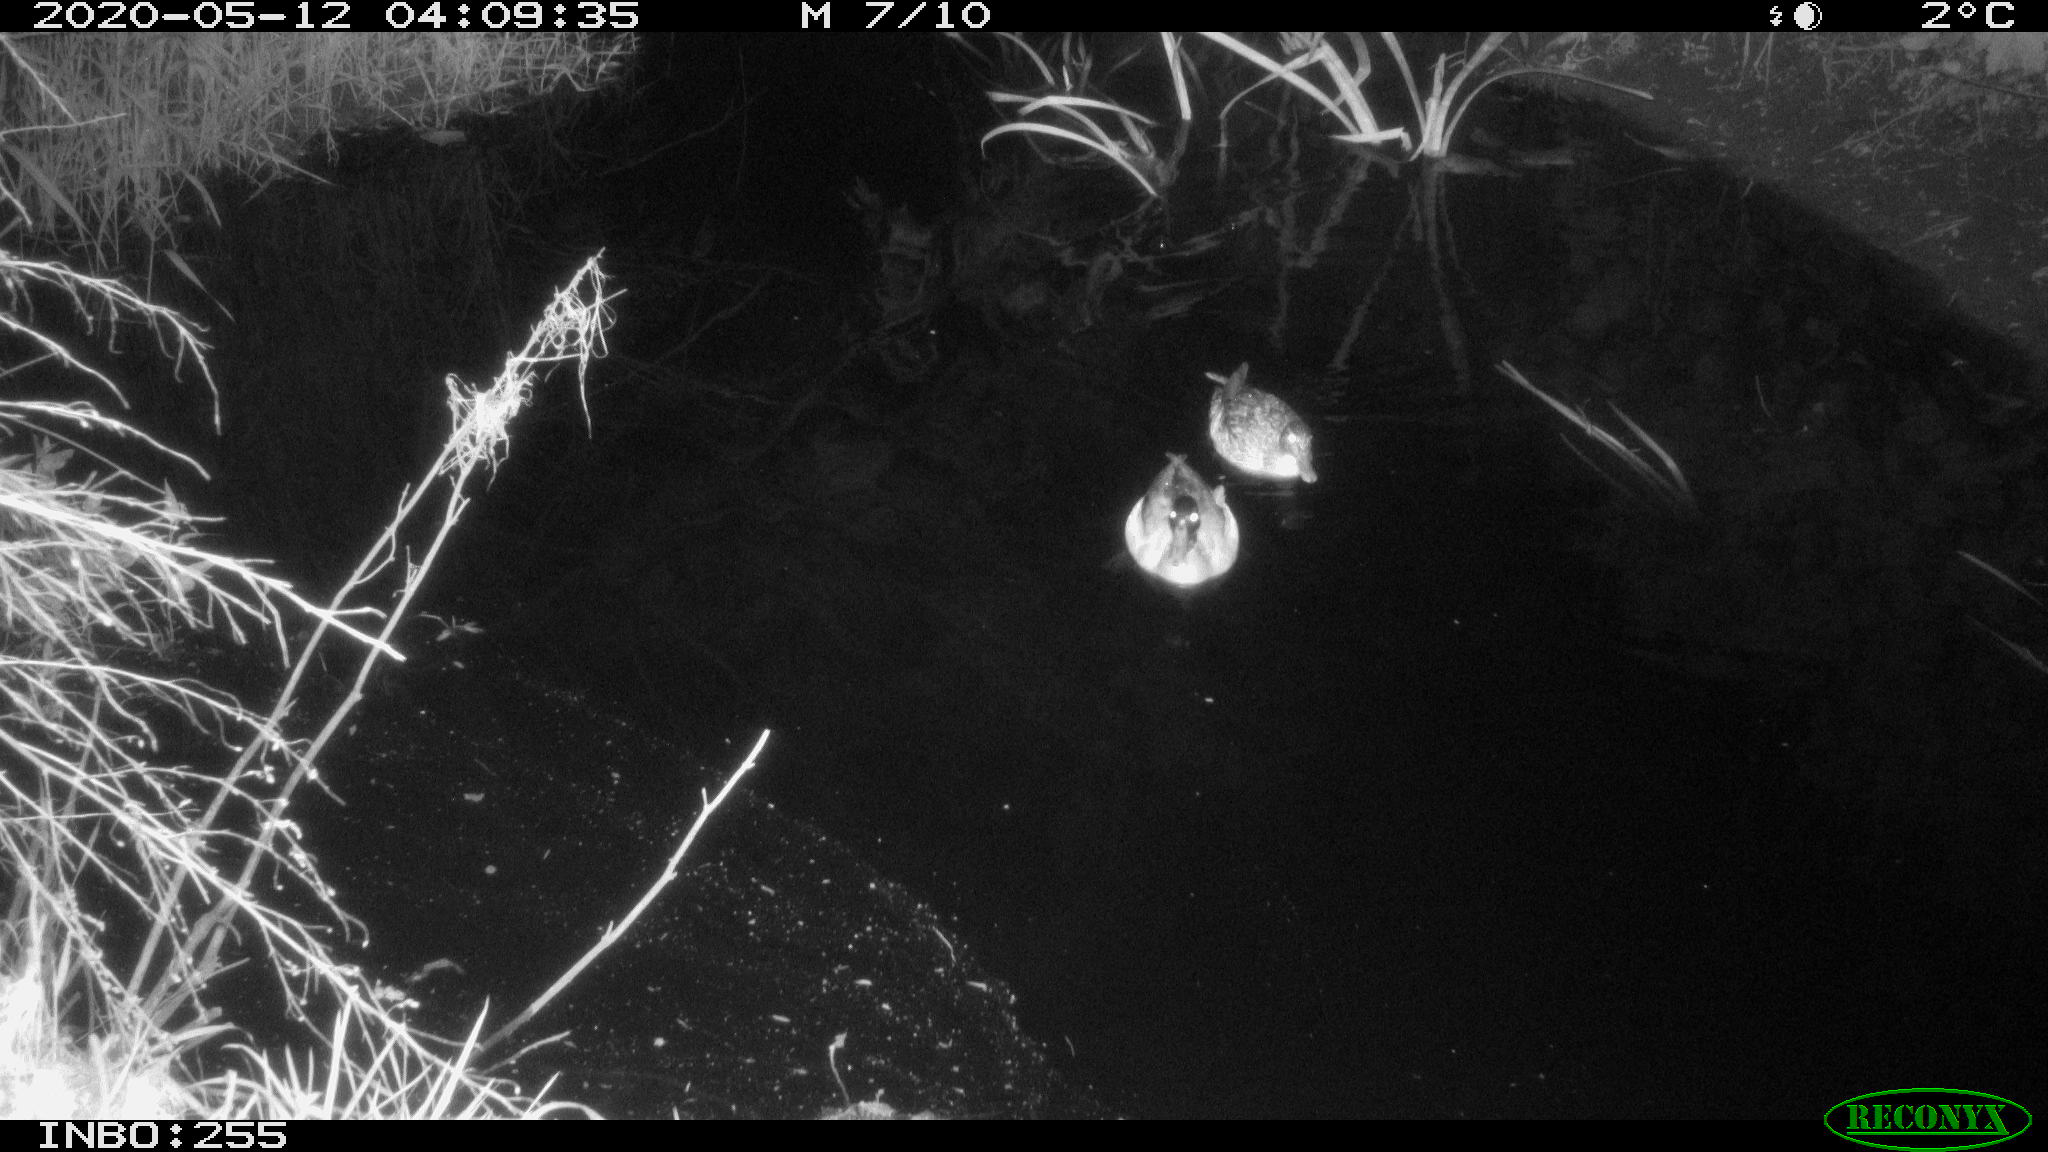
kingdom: Animalia
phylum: Chordata
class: Aves
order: Anseriformes
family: Anatidae
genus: Anas
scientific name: Anas platyrhynchos
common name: Mallard
